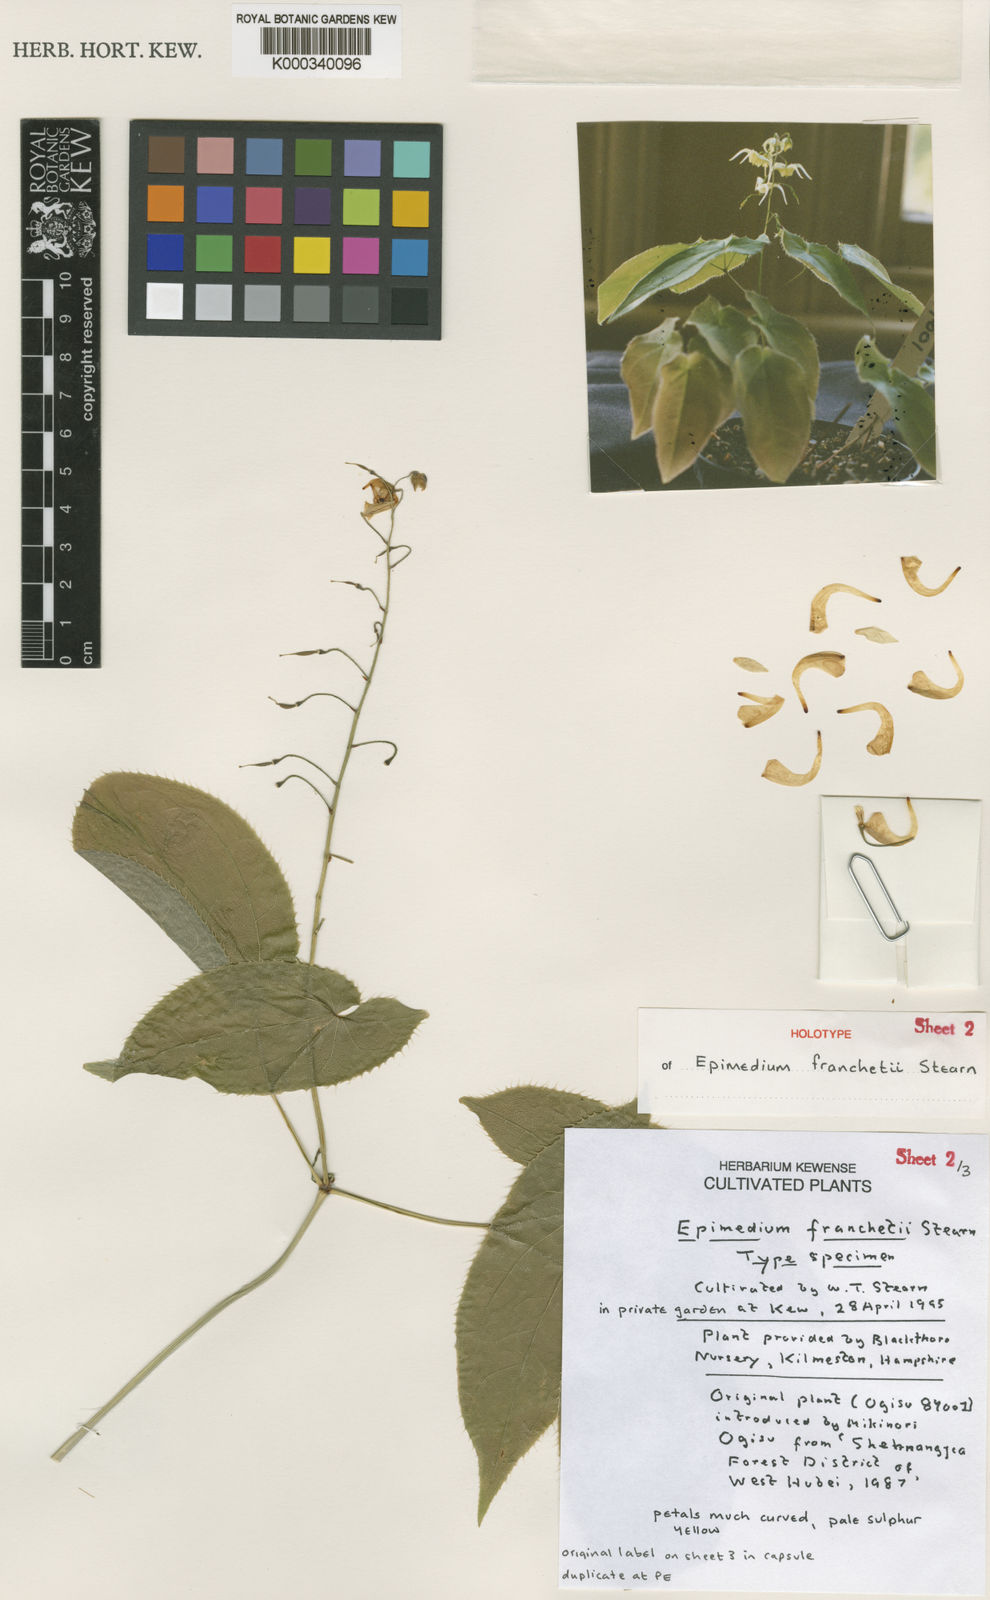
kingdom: Plantae
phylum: Tracheophyta
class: Magnoliopsida
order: Ranunculales
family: Berberidaceae
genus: Epimedium
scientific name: Epimedium franchetii
